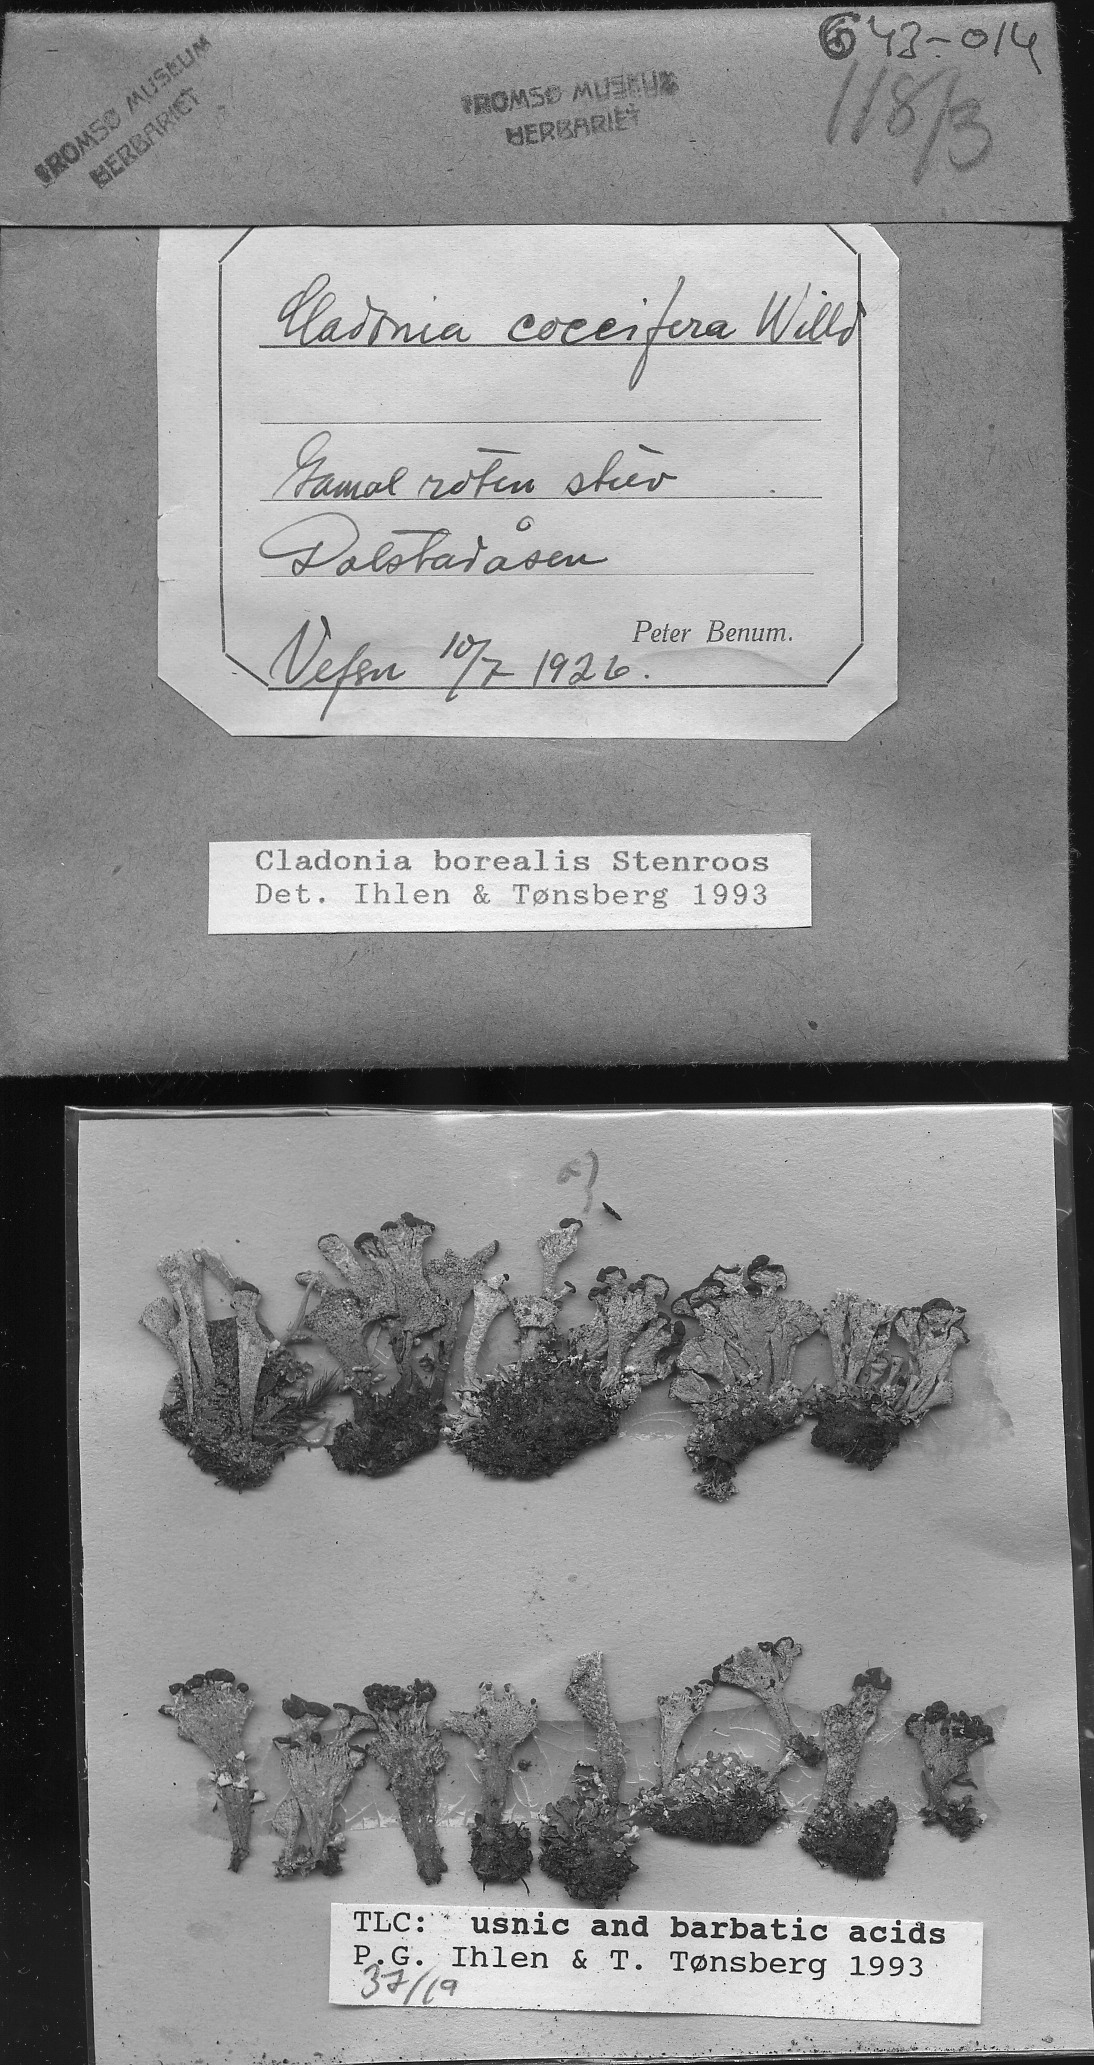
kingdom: Fungi
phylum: Ascomycota
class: Lecanoromycetes
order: Lecanorales
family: Cladoniaceae
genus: Cladonia
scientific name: Cladonia borealis
